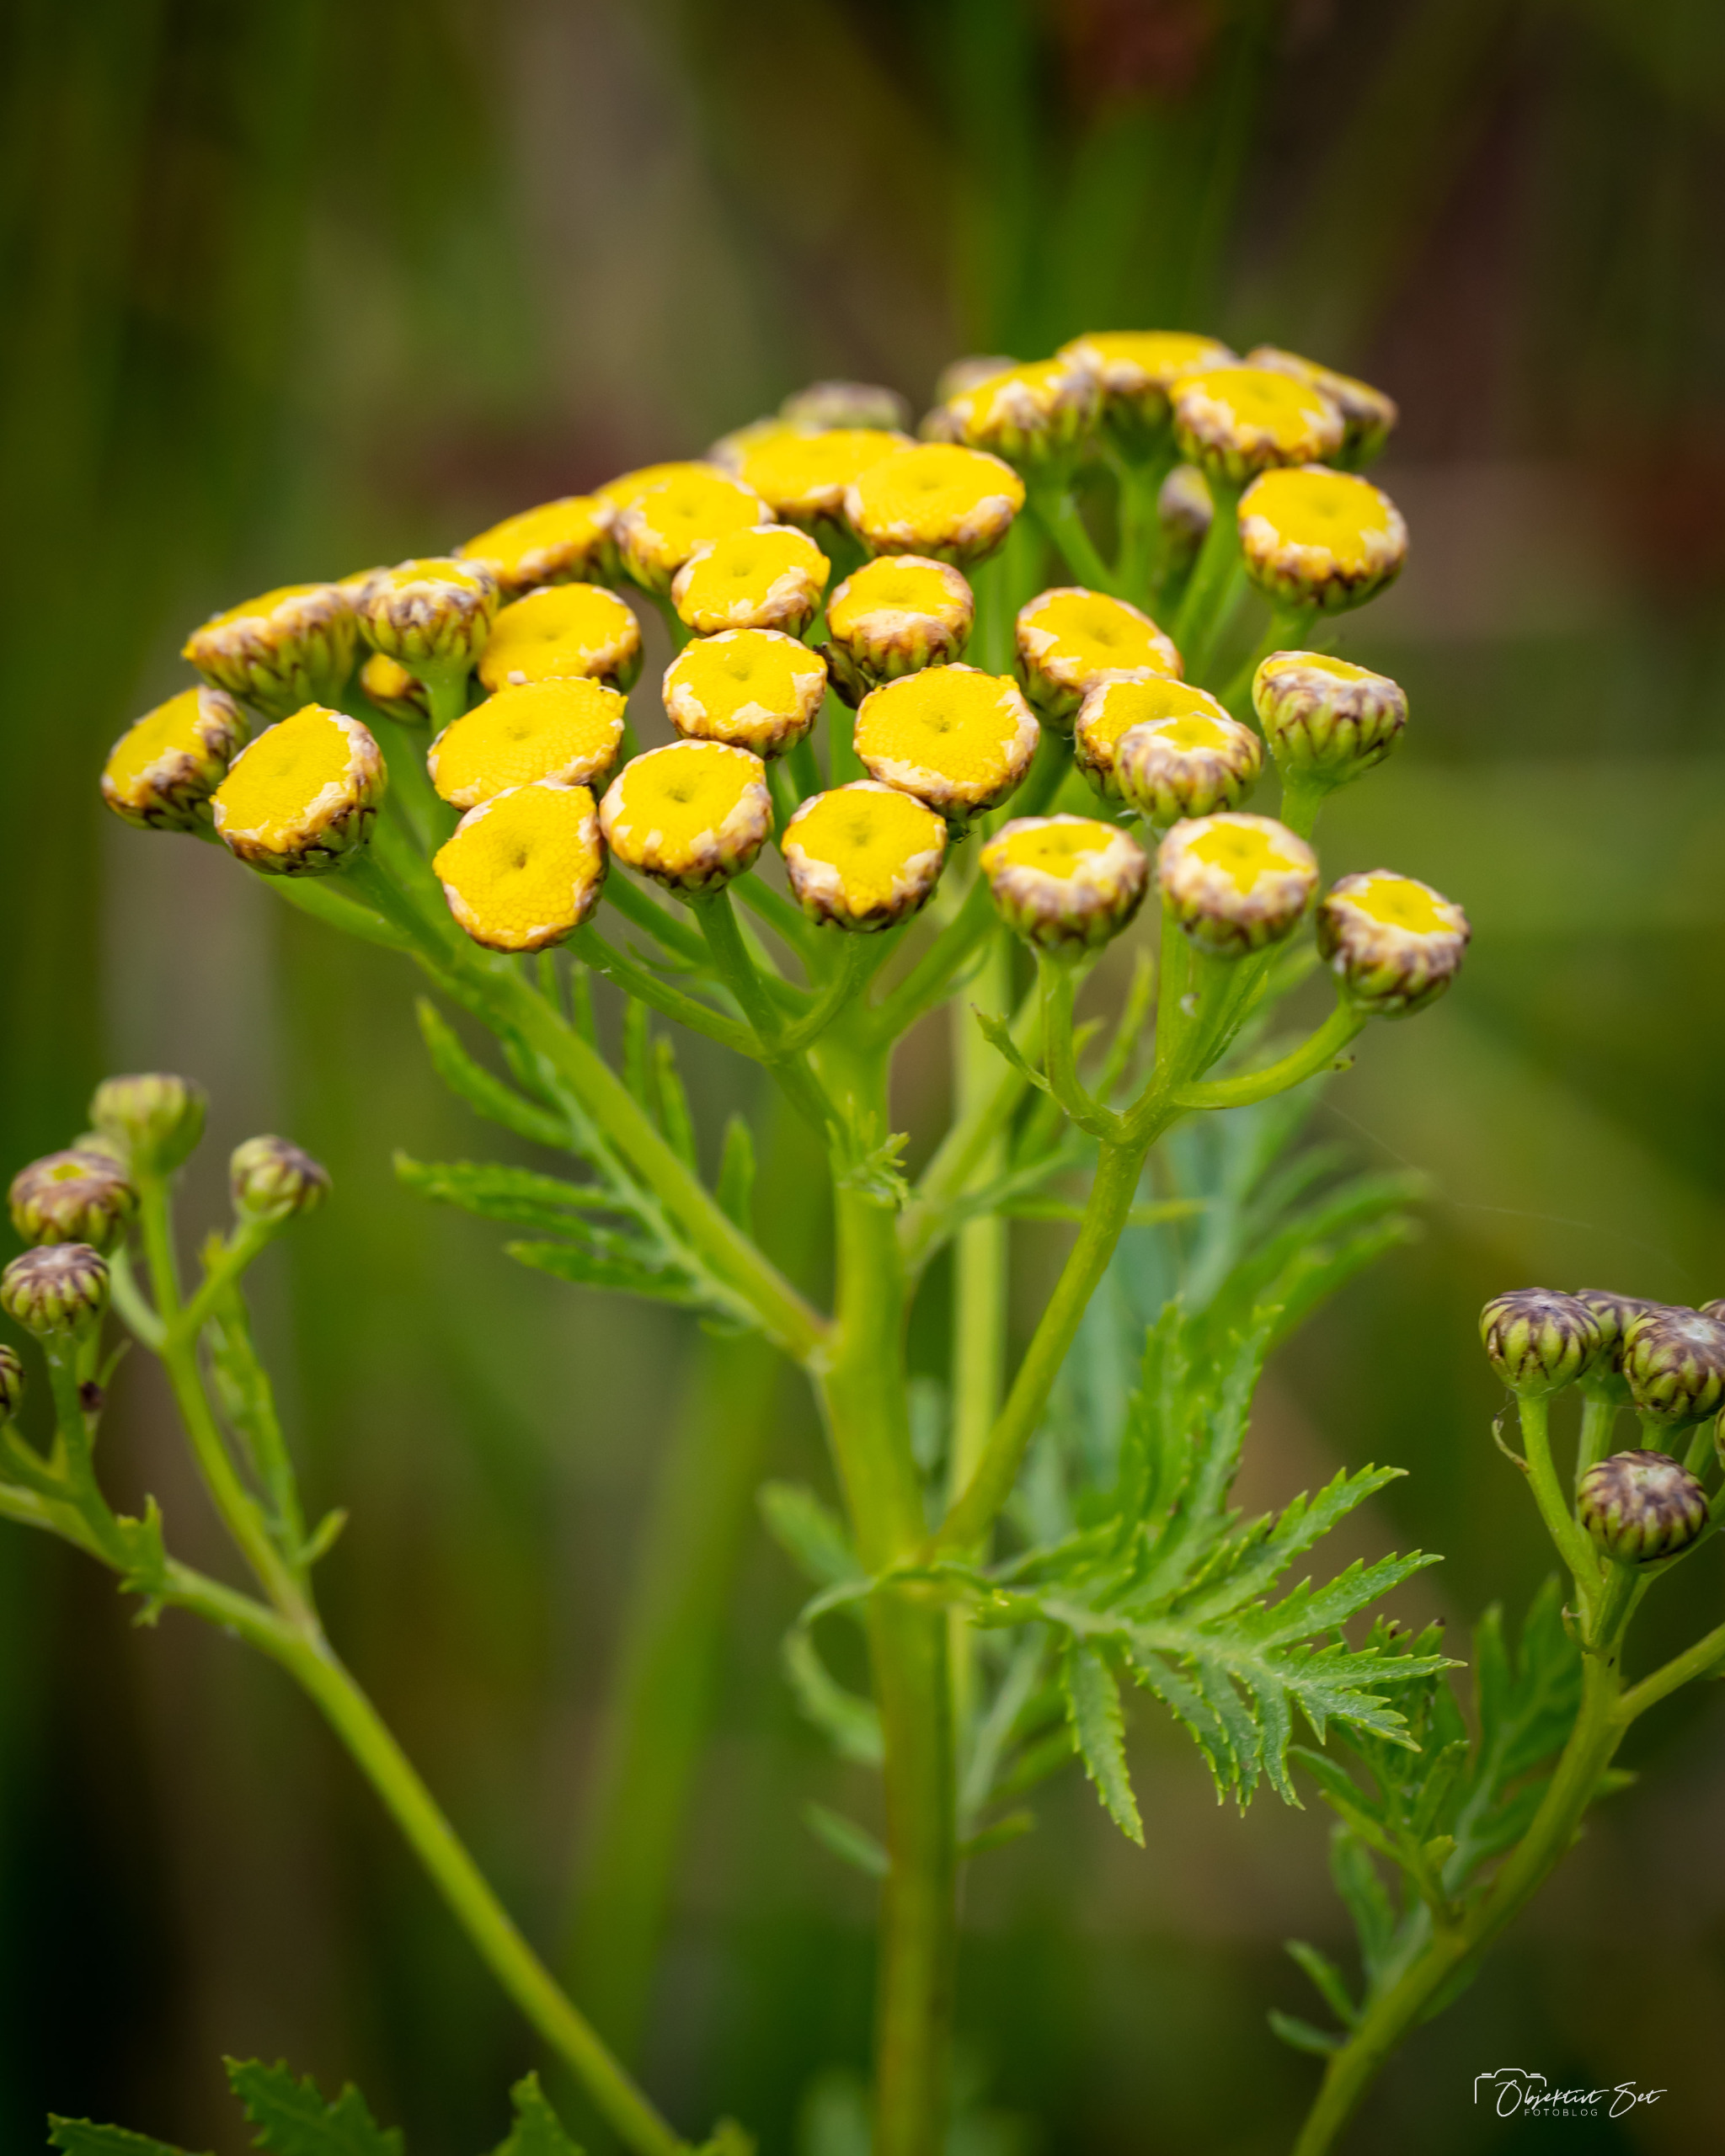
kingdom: Plantae
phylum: Tracheophyta
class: Magnoliopsida
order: Asterales
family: Asteraceae
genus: Tanacetum
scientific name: Tanacetum vulgare
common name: Rejnfan
